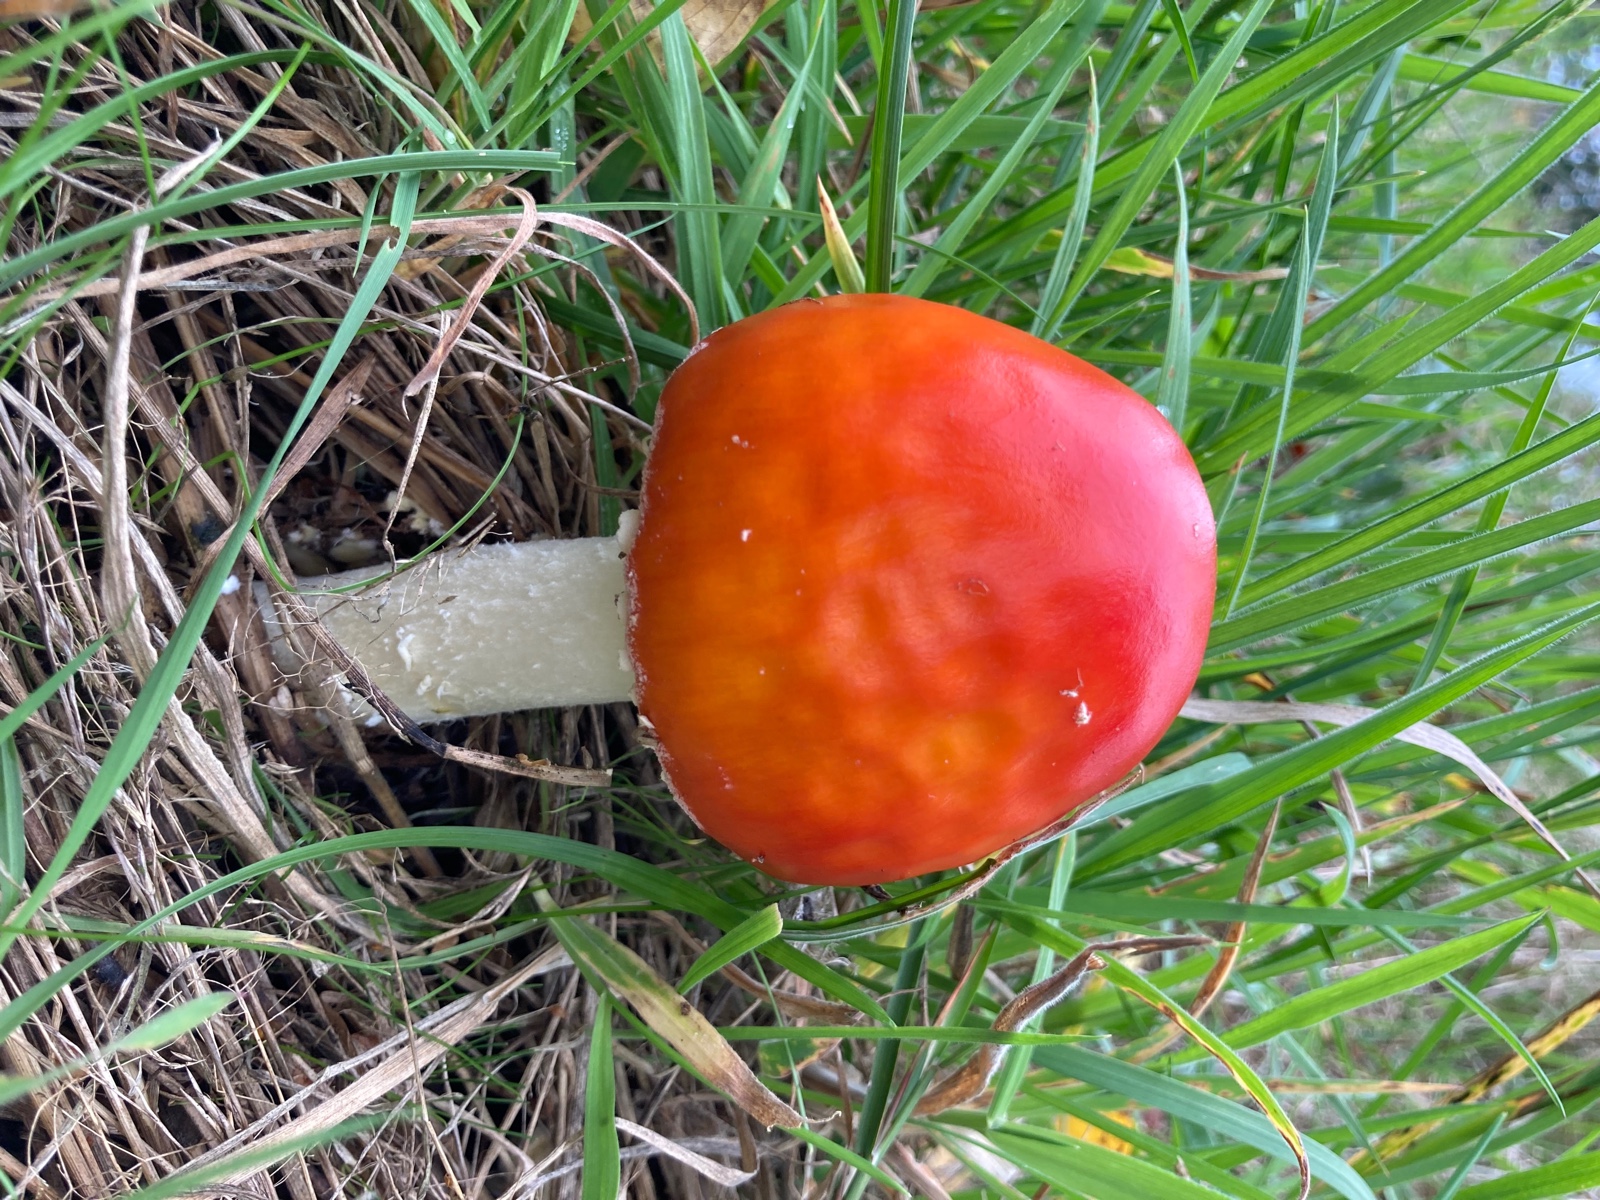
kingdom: Fungi
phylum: Basidiomycota
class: Agaricomycetes
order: Agaricales
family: Amanitaceae
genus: Amanita
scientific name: Amanita muscaria
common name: rød fluesvamp
